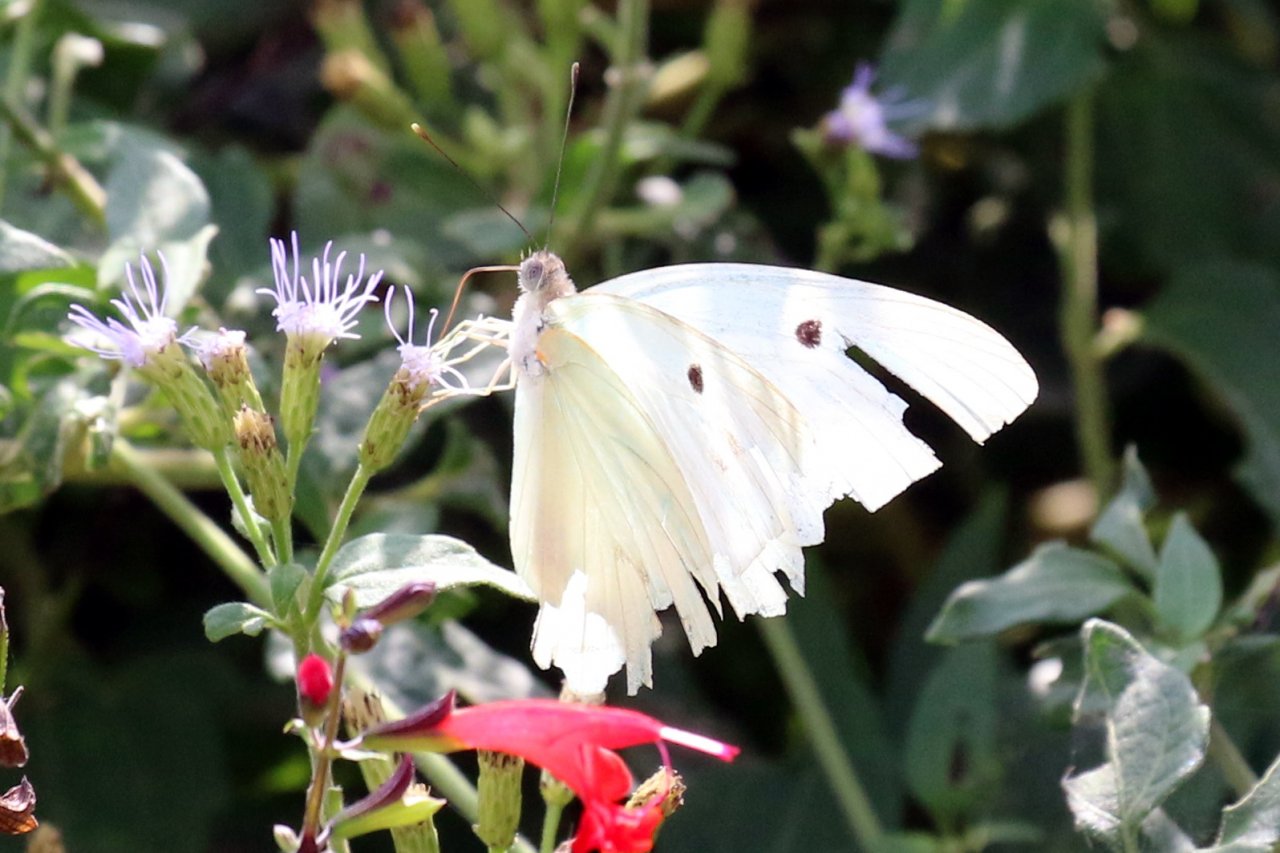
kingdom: Animalia
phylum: Arthropoda
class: Insecta
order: Lepidoptera
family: Pieridae
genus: Ganyra
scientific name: Ganyra josephina
